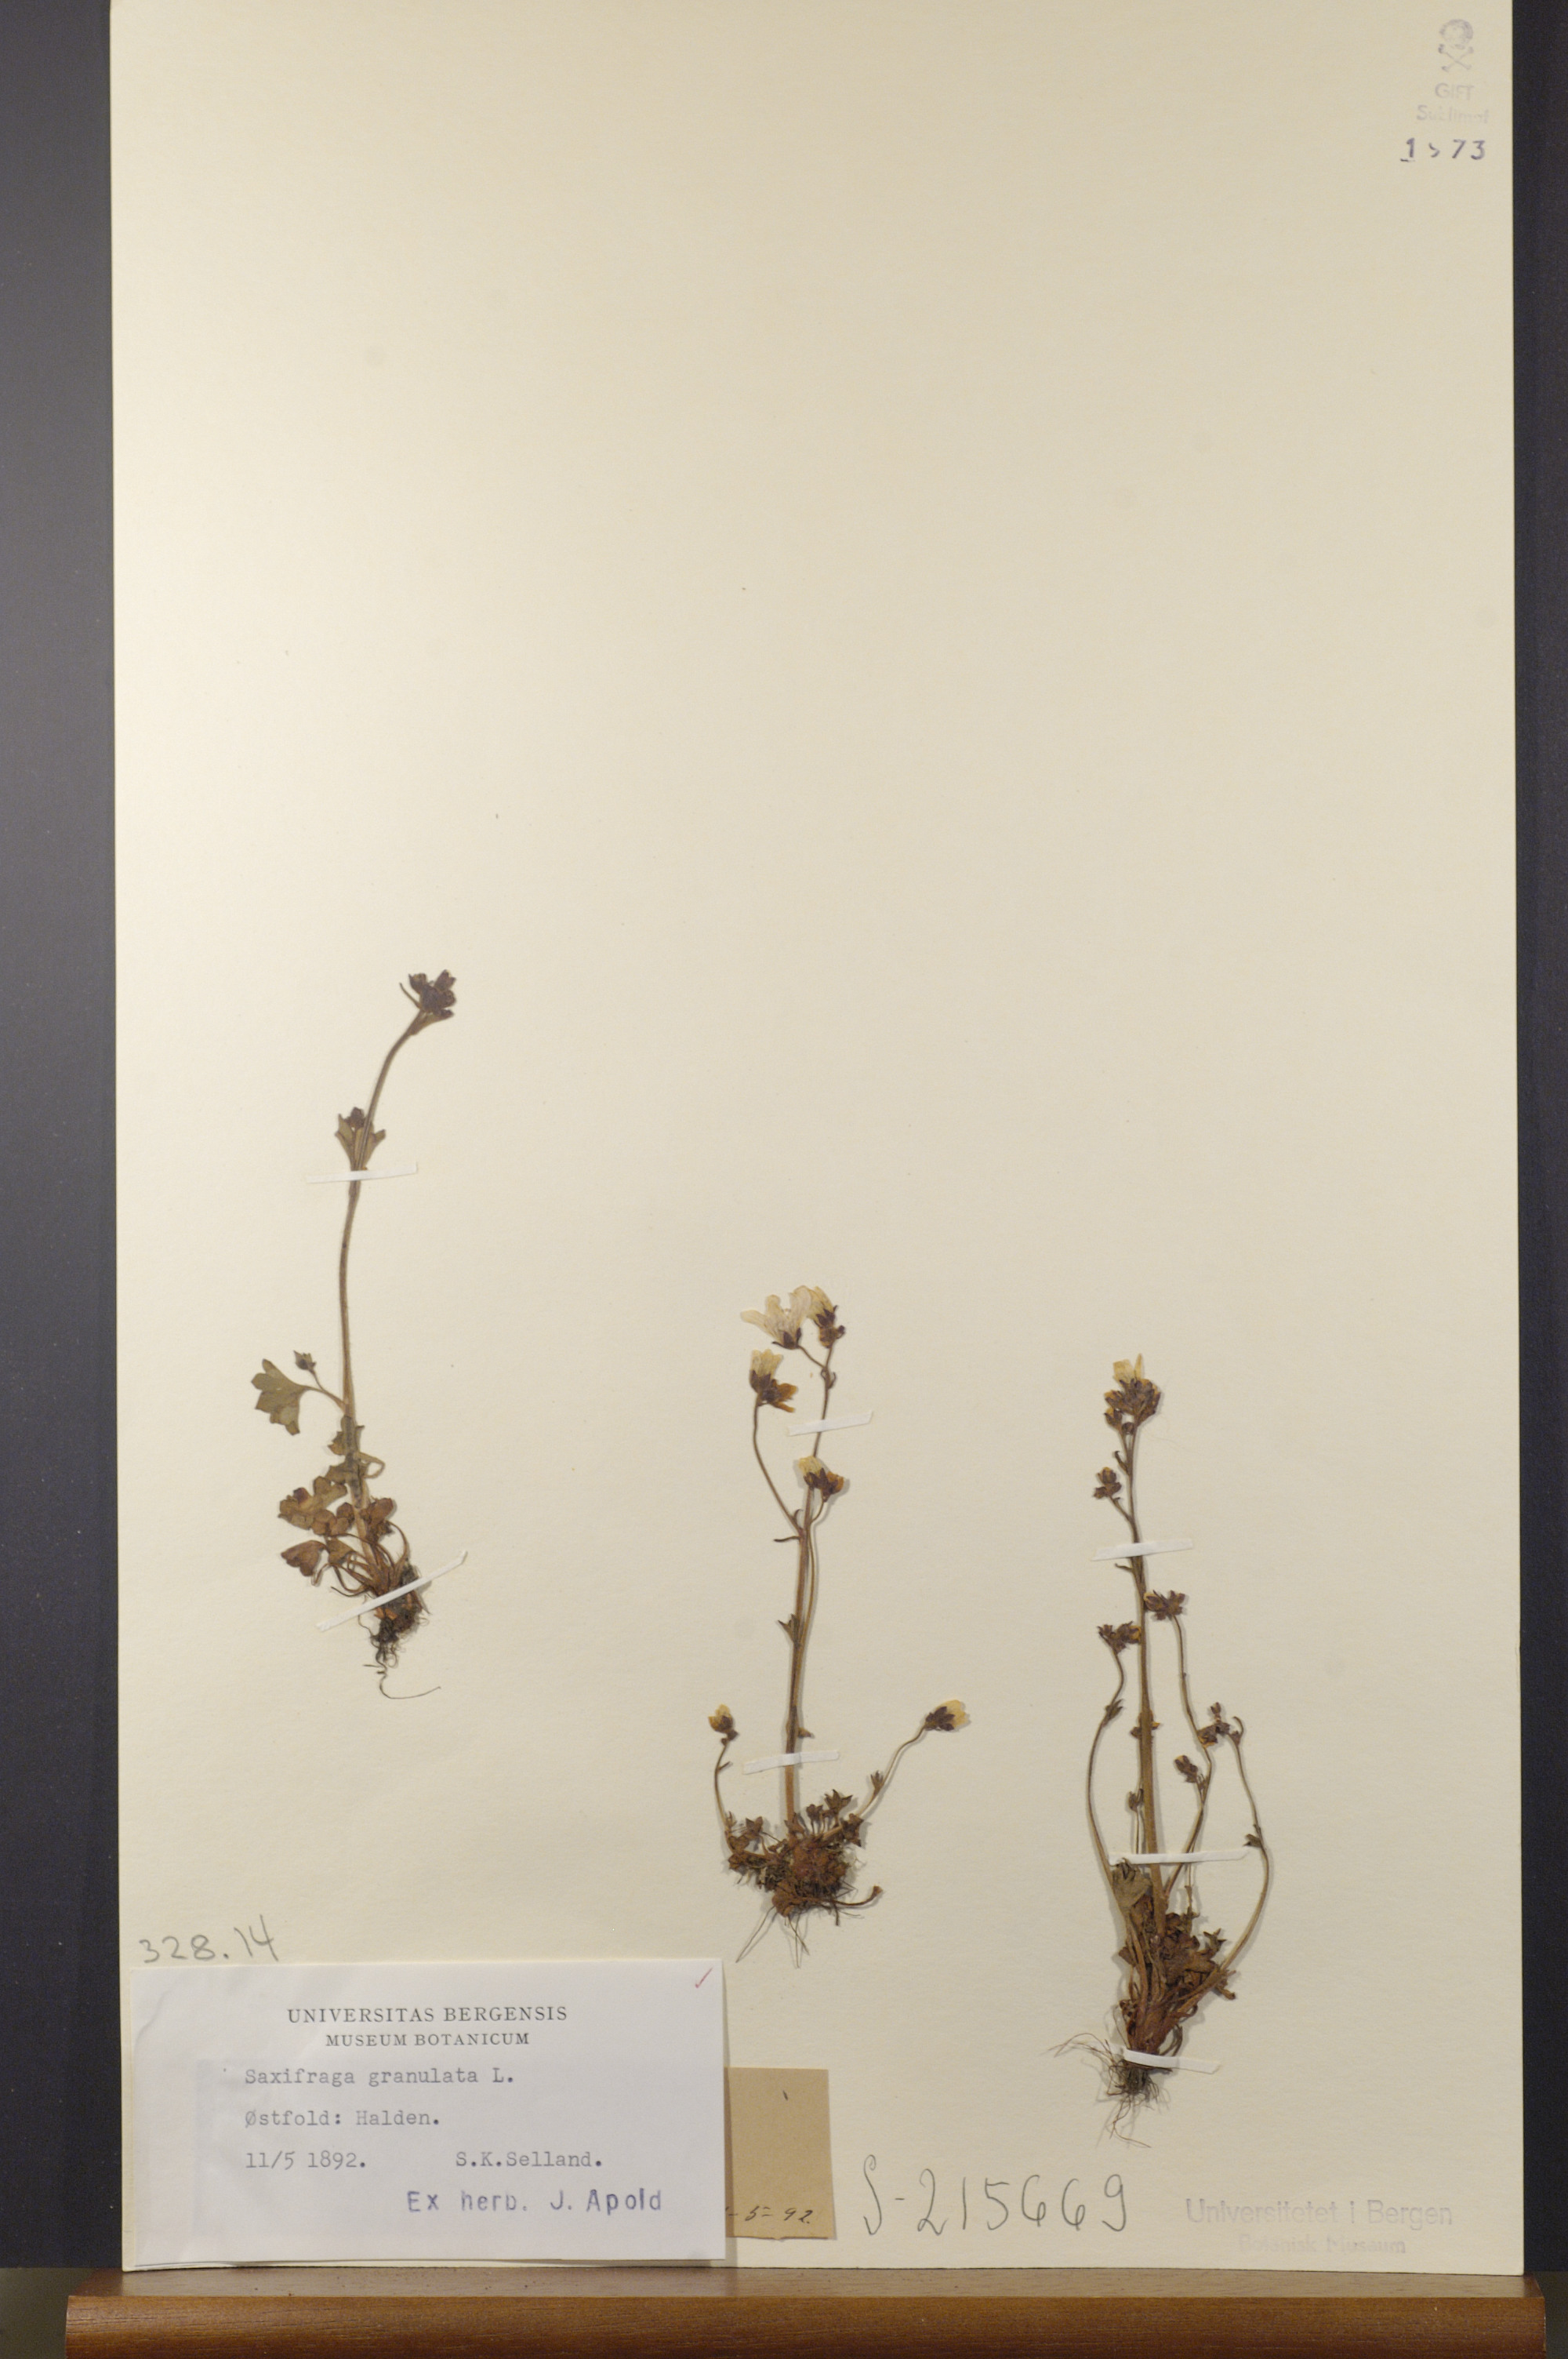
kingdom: Plantae
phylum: Tracheophyta
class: Magnoliopsida
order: Saxifragales
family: Saxifragaceae
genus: Saxifraga
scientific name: Saxifraga granulata
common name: Meadow saxifrage
